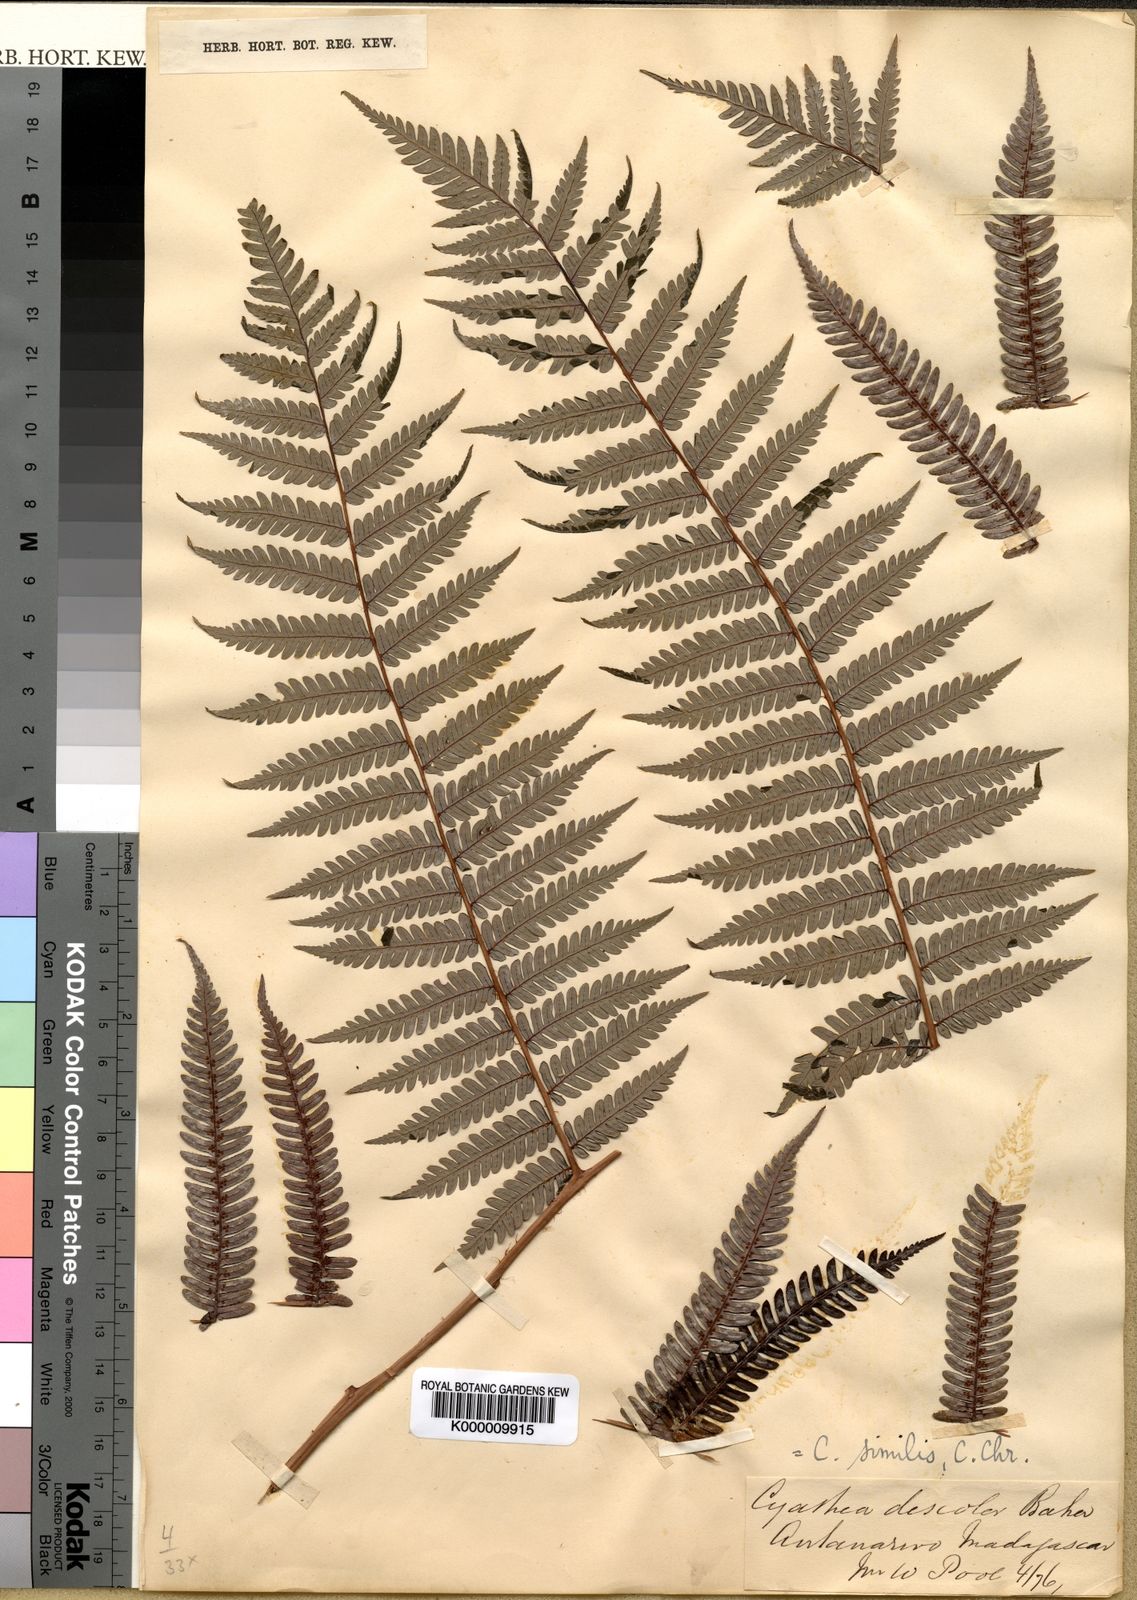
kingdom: Plantae
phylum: Tracheophyta
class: Polypodiopsida
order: Cyatheales
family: Cyatheaceae
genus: Alsophila
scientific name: Alsophila similis
